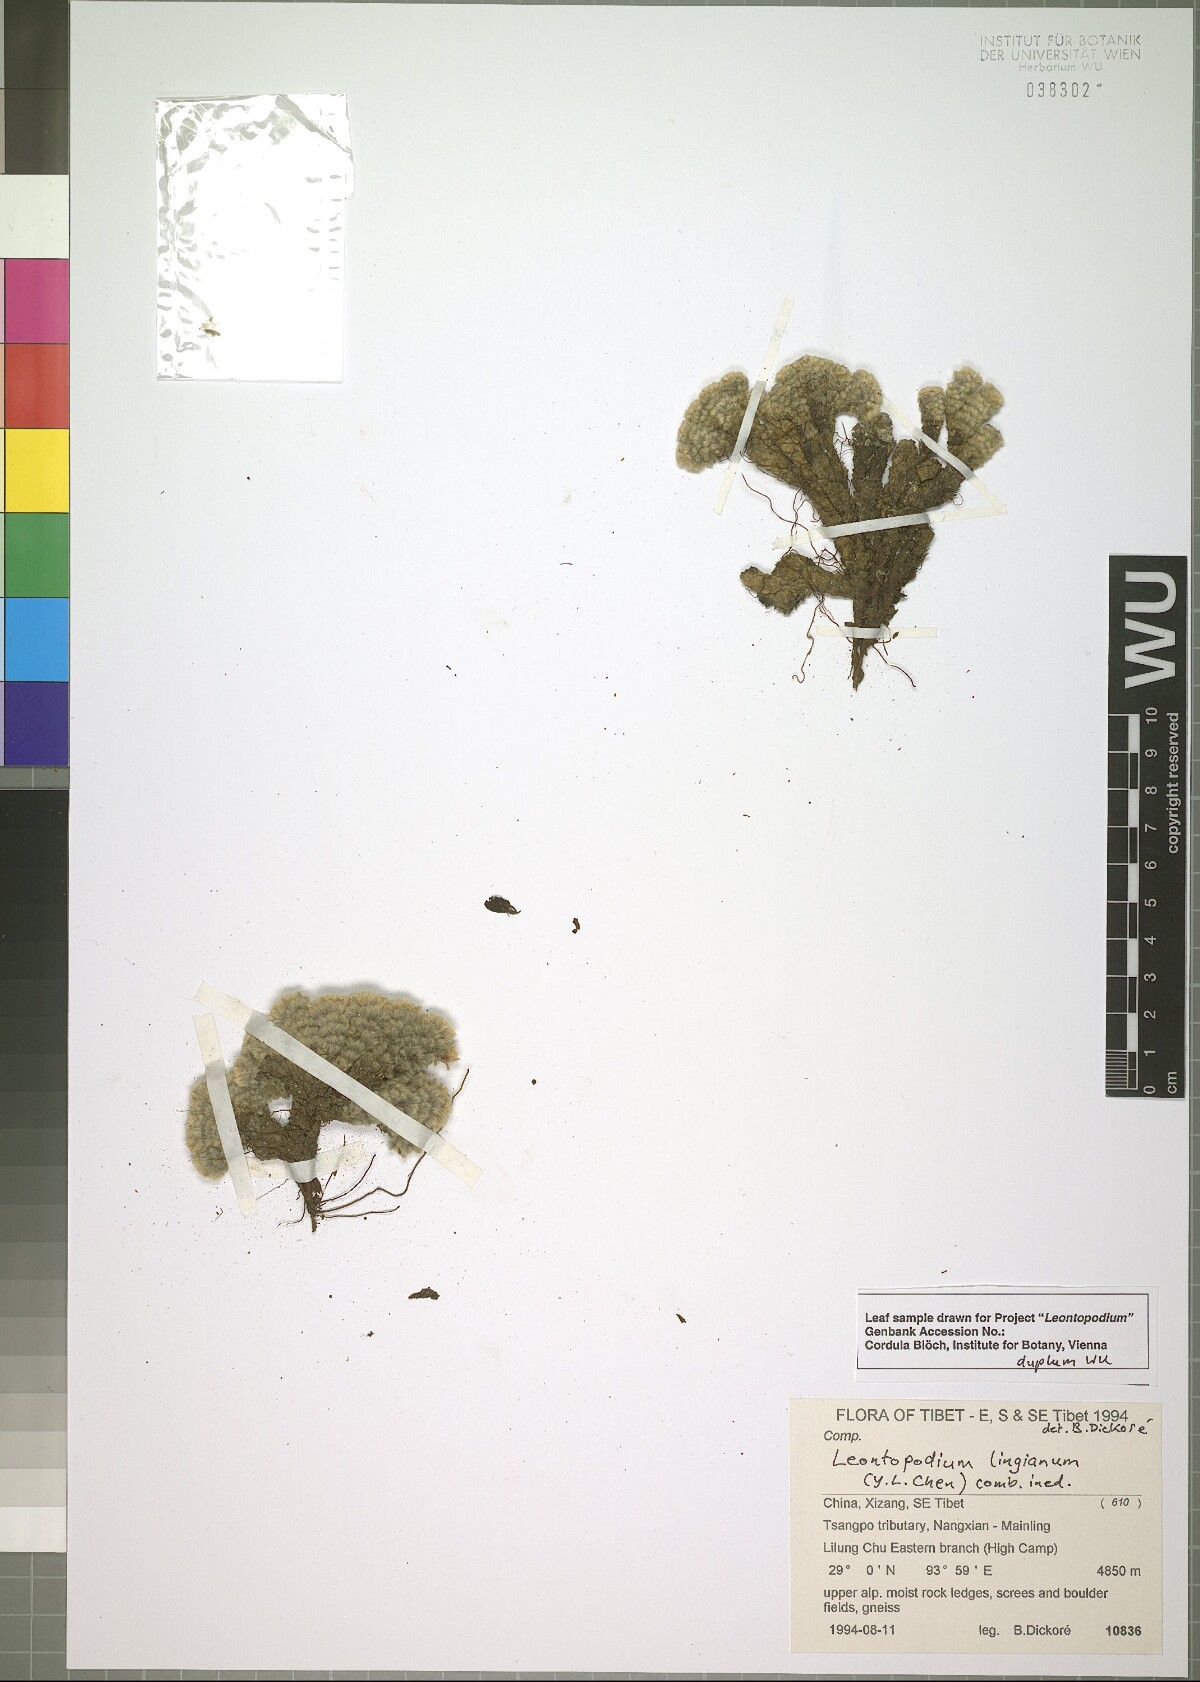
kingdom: Plantae
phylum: Tracheophyta
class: Magnoliopsida
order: Asterales
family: Asteraceae
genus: Leontopodium
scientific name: Leontopodium lingianum
